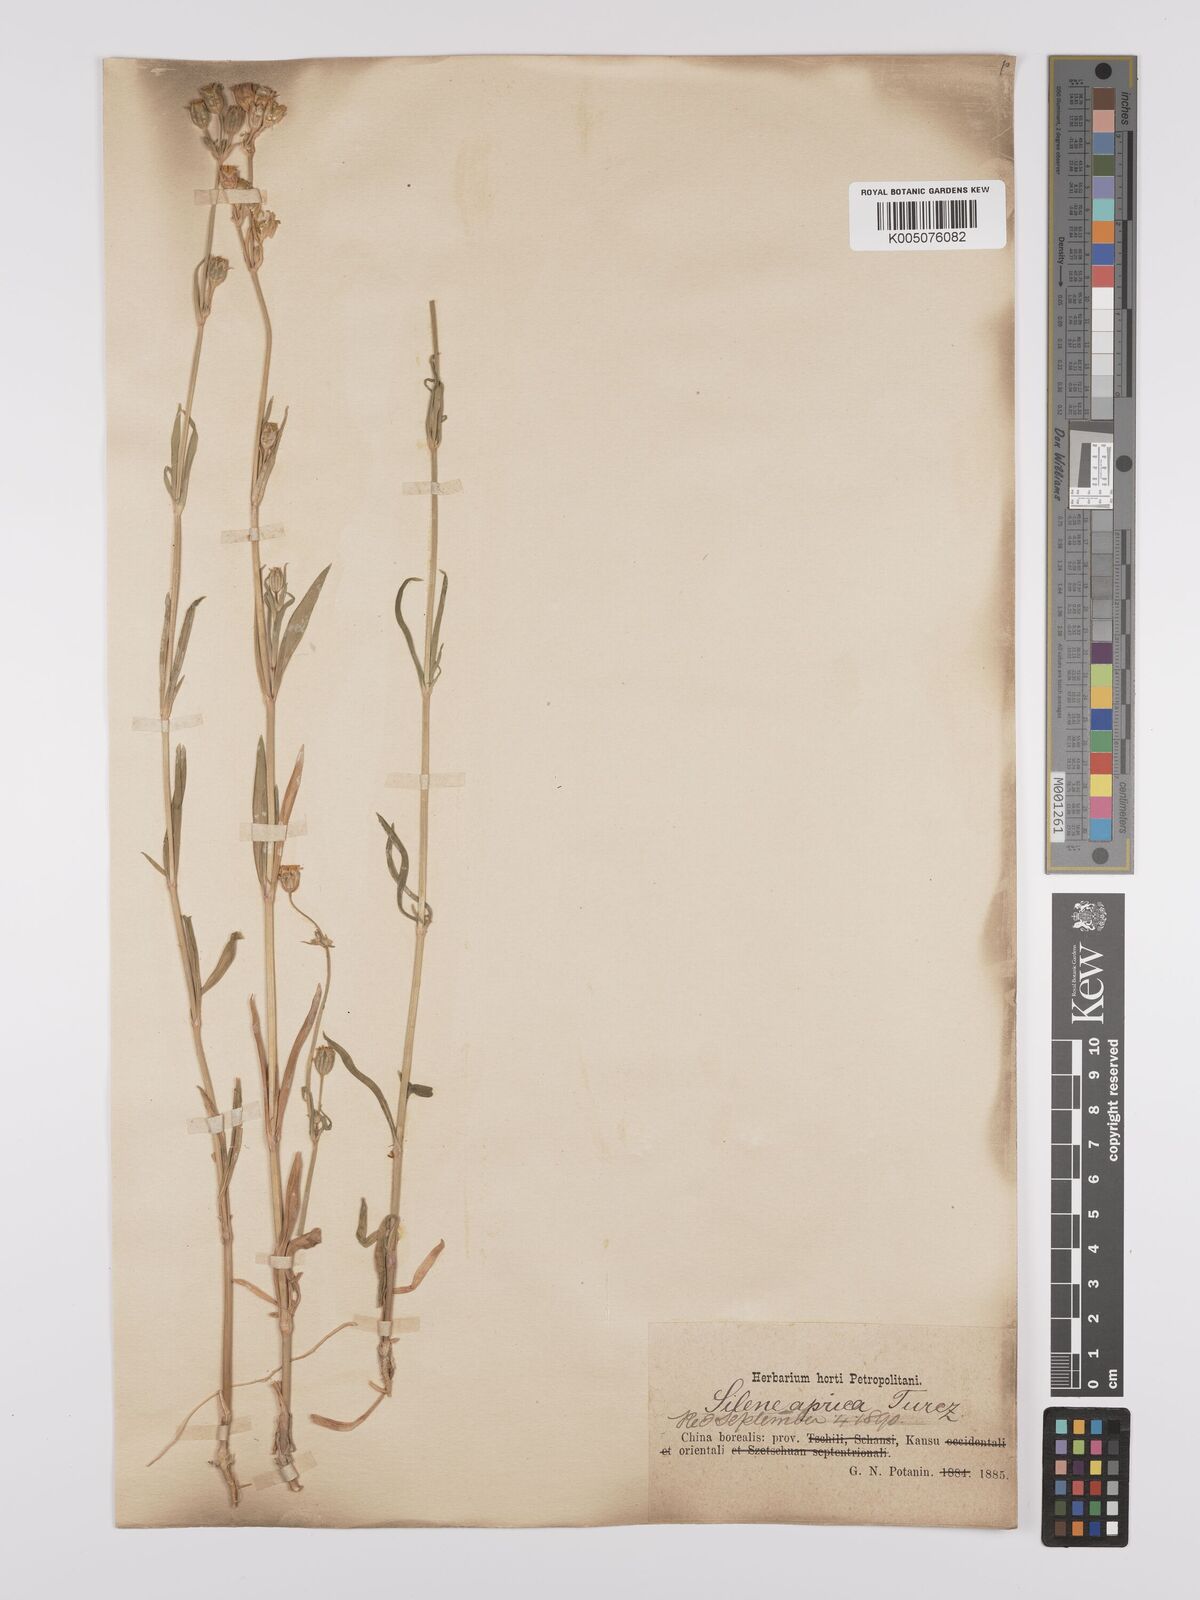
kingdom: Plantae
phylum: Tracheophyta
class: Magnoliopsida
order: Caryophyllales
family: Caryophyllaceae
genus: Silene
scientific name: Silene aprica
